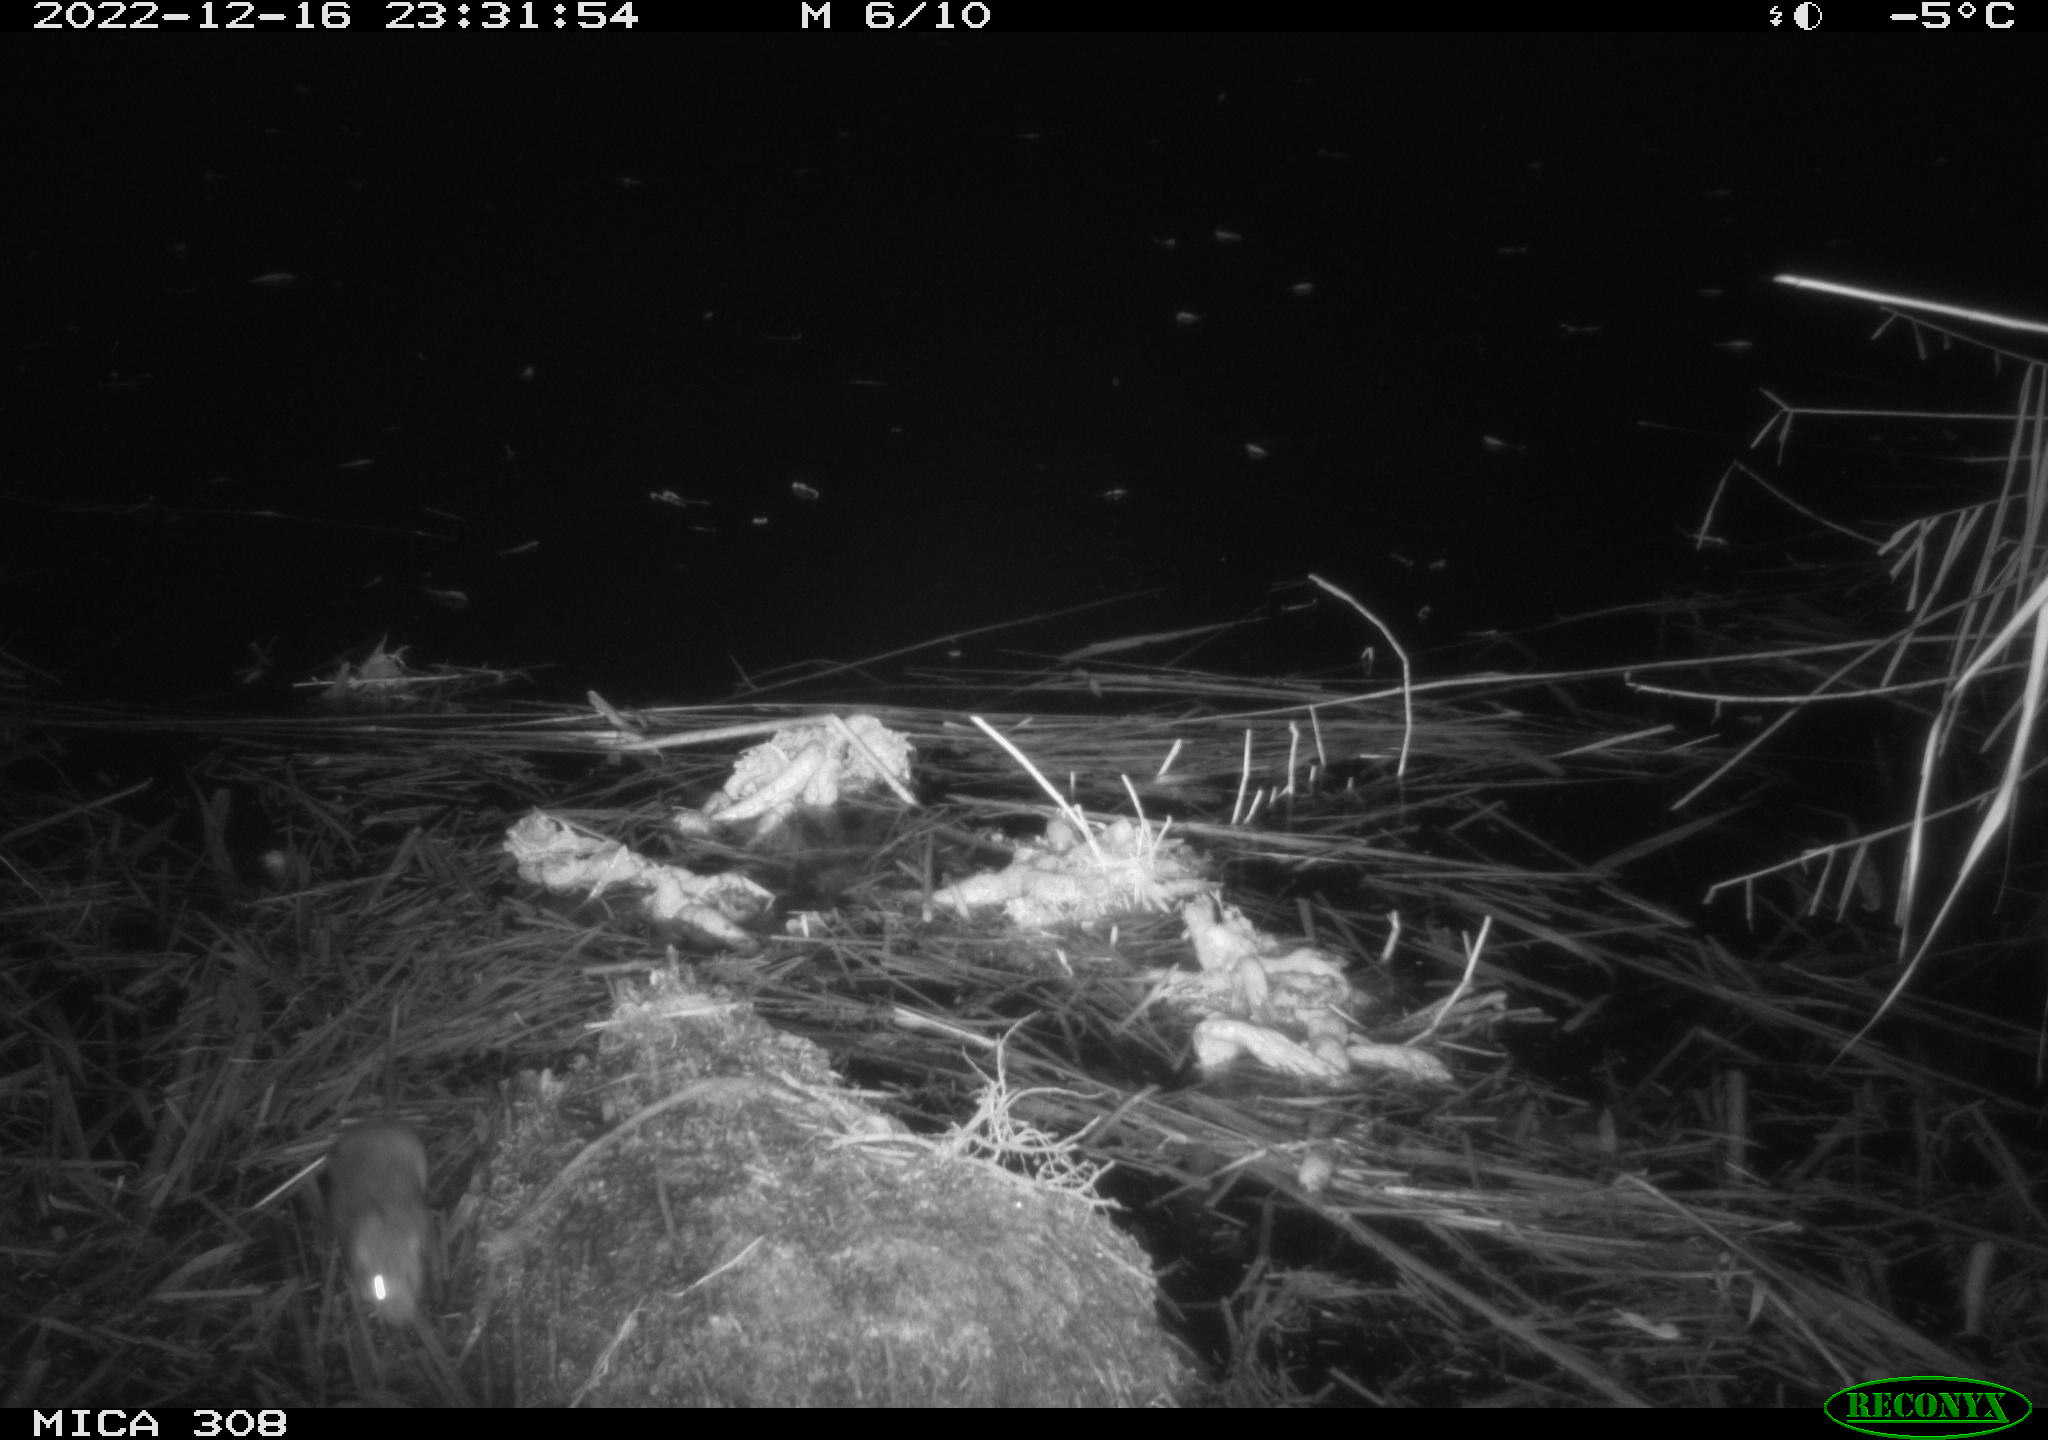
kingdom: Animalia
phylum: Chordata
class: Mammalia
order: Rodentia
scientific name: Rodentia
